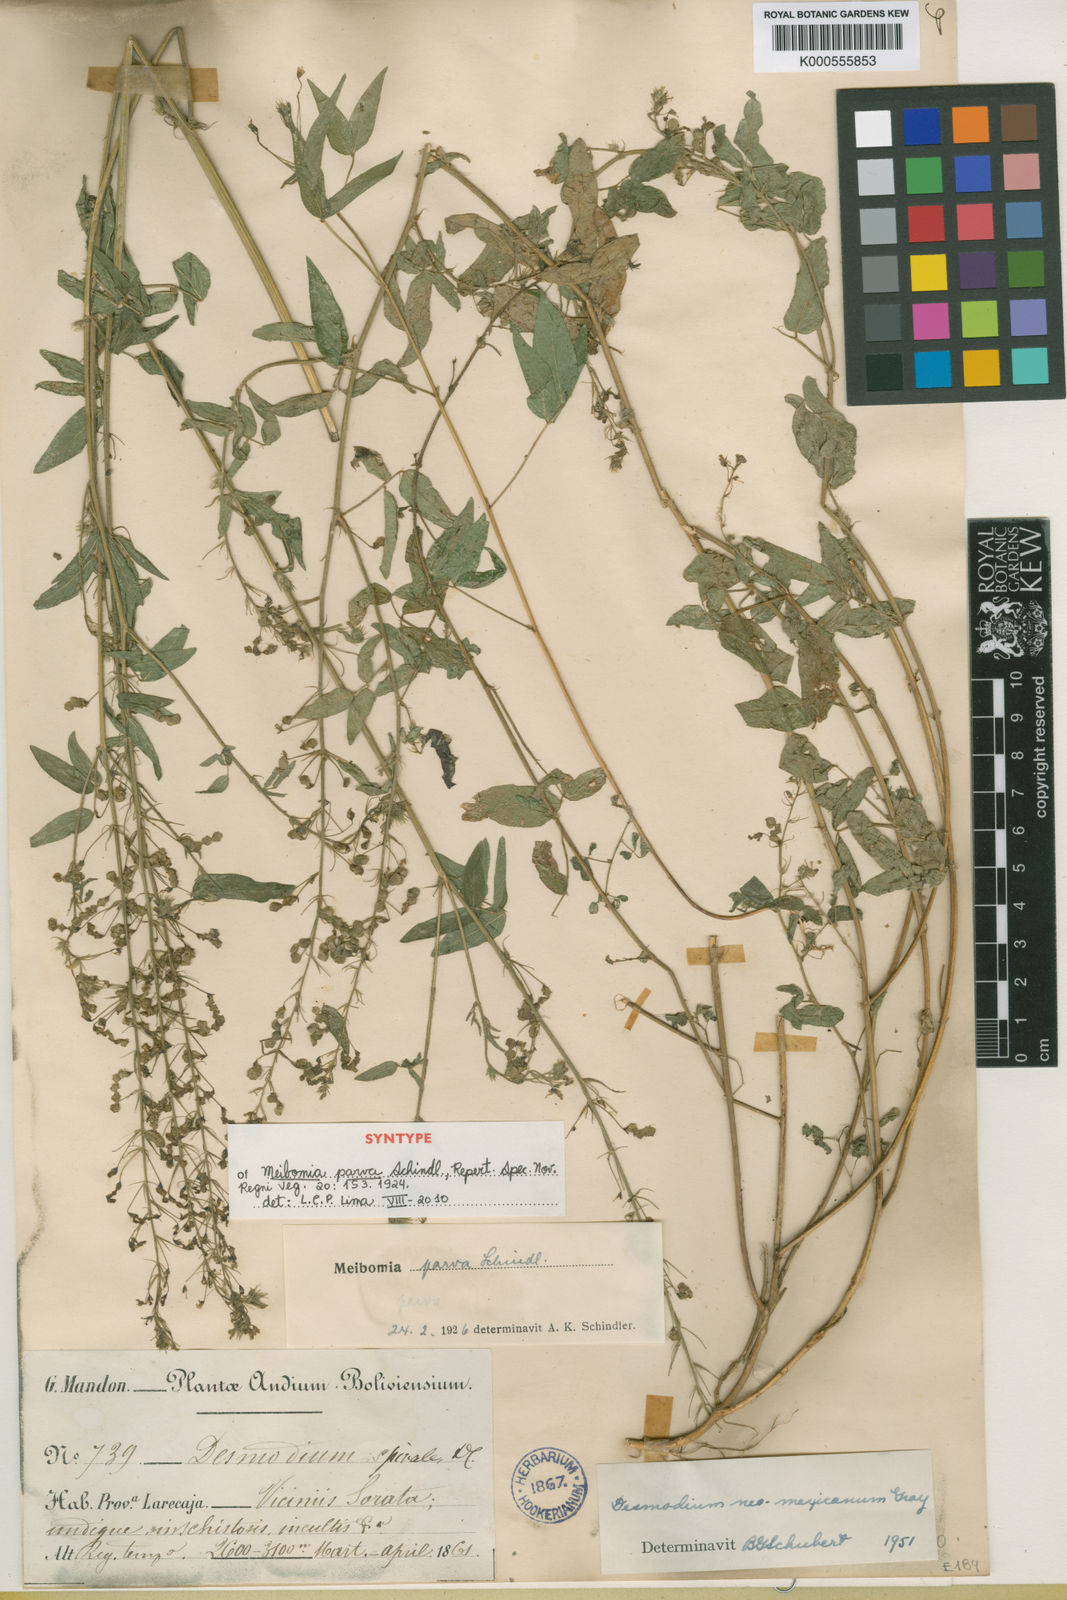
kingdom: Plantae
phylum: Tracheophyta
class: Magnoliopsida
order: Fabales
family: Fabaceae
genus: Desmodium
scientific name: Desmodium procumbens
